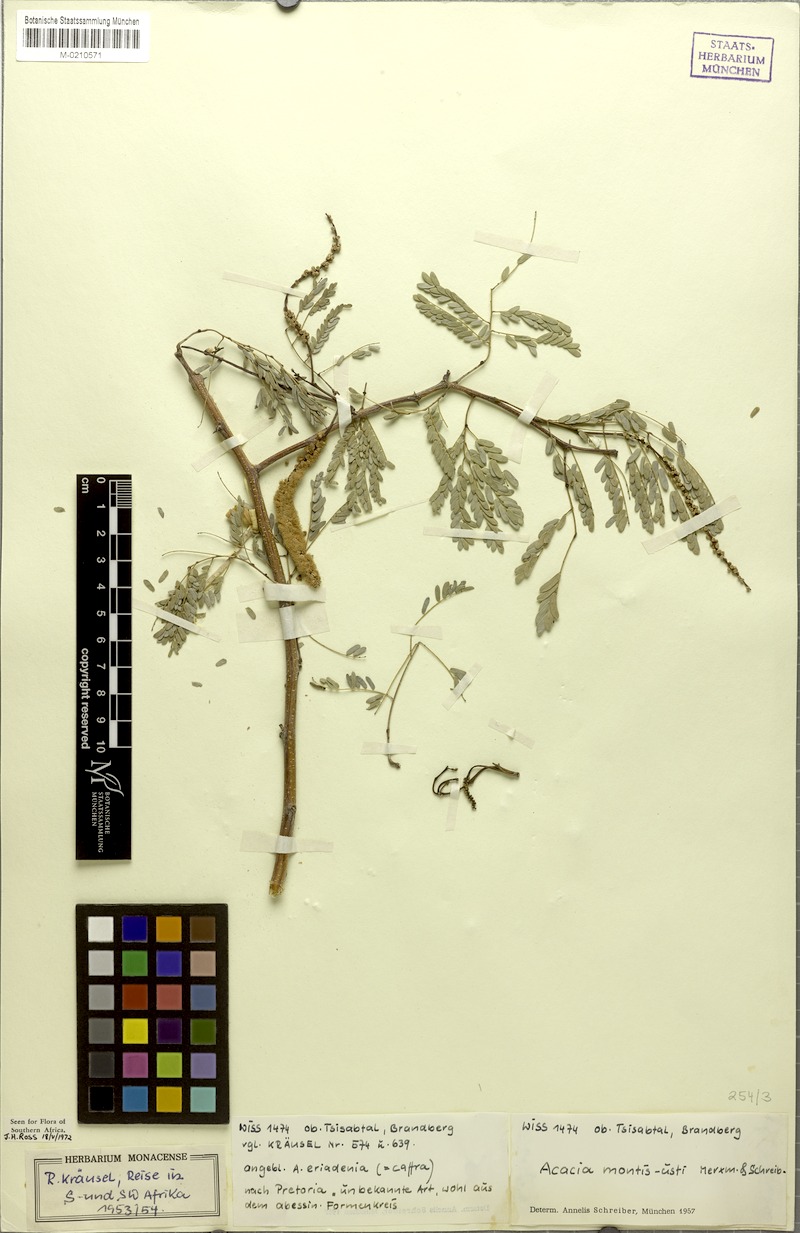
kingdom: Plantae
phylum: Tracheophyta
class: Magnoliopsida
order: Fabales
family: Fabaceae
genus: Senegalia
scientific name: Senegalia montis-usti
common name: Brandberg acacia
